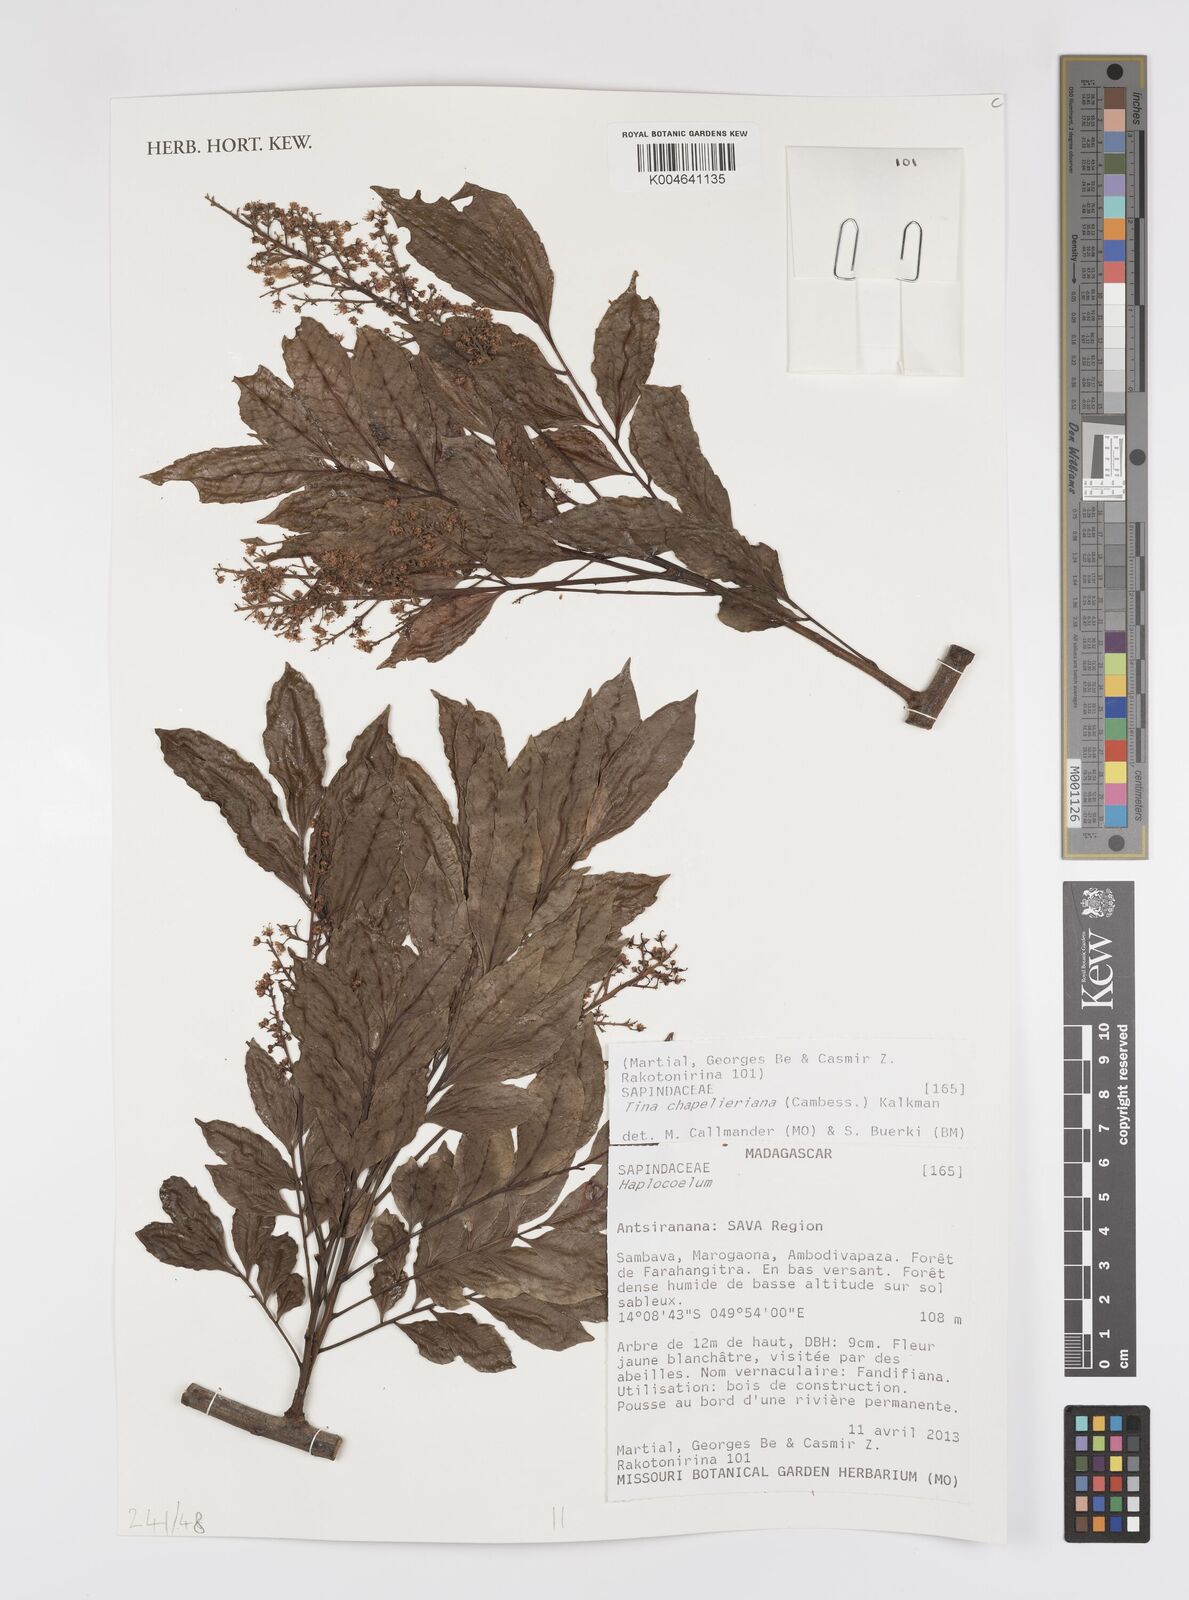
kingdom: Plantae
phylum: Tracheophyta
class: Magnoliopsida
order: Sapindales
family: Sapindaceae
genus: Tina
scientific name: Tina chapelieriana
